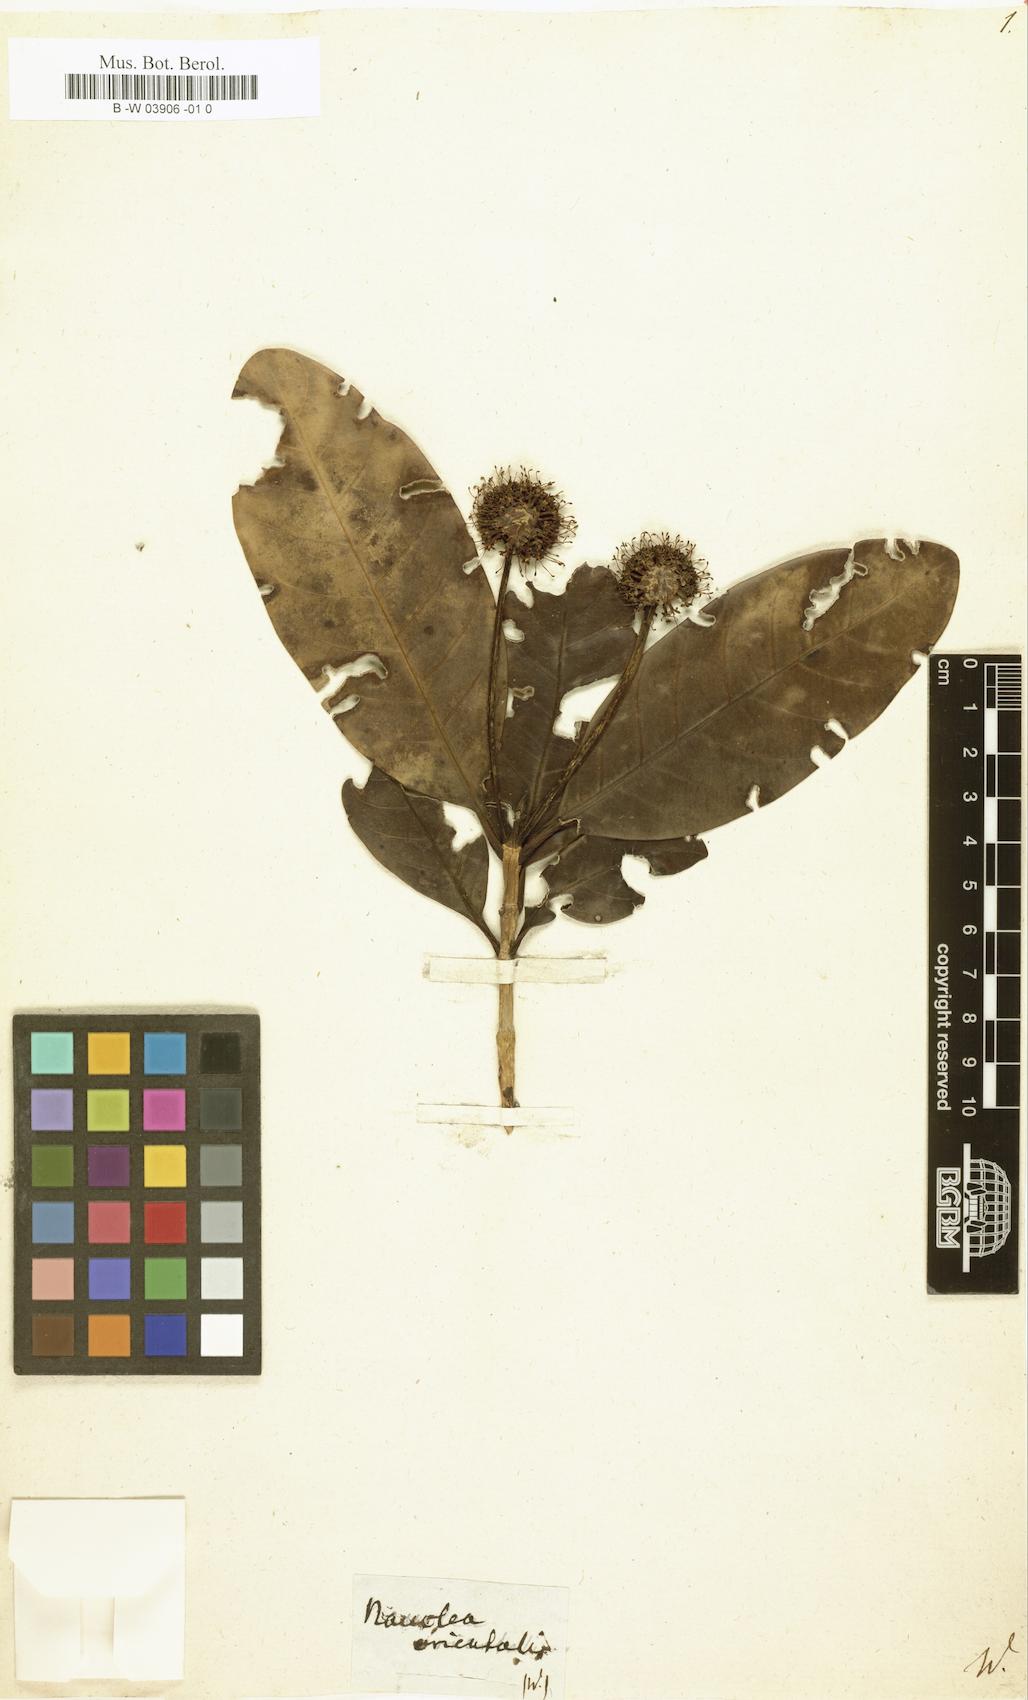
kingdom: Plantae
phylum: Tracheophyta
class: Magnoliopsida
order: Gentianales
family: Rubiaceae
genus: Nauclea
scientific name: Nauclea orientalis
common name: Leichhardt-pine
